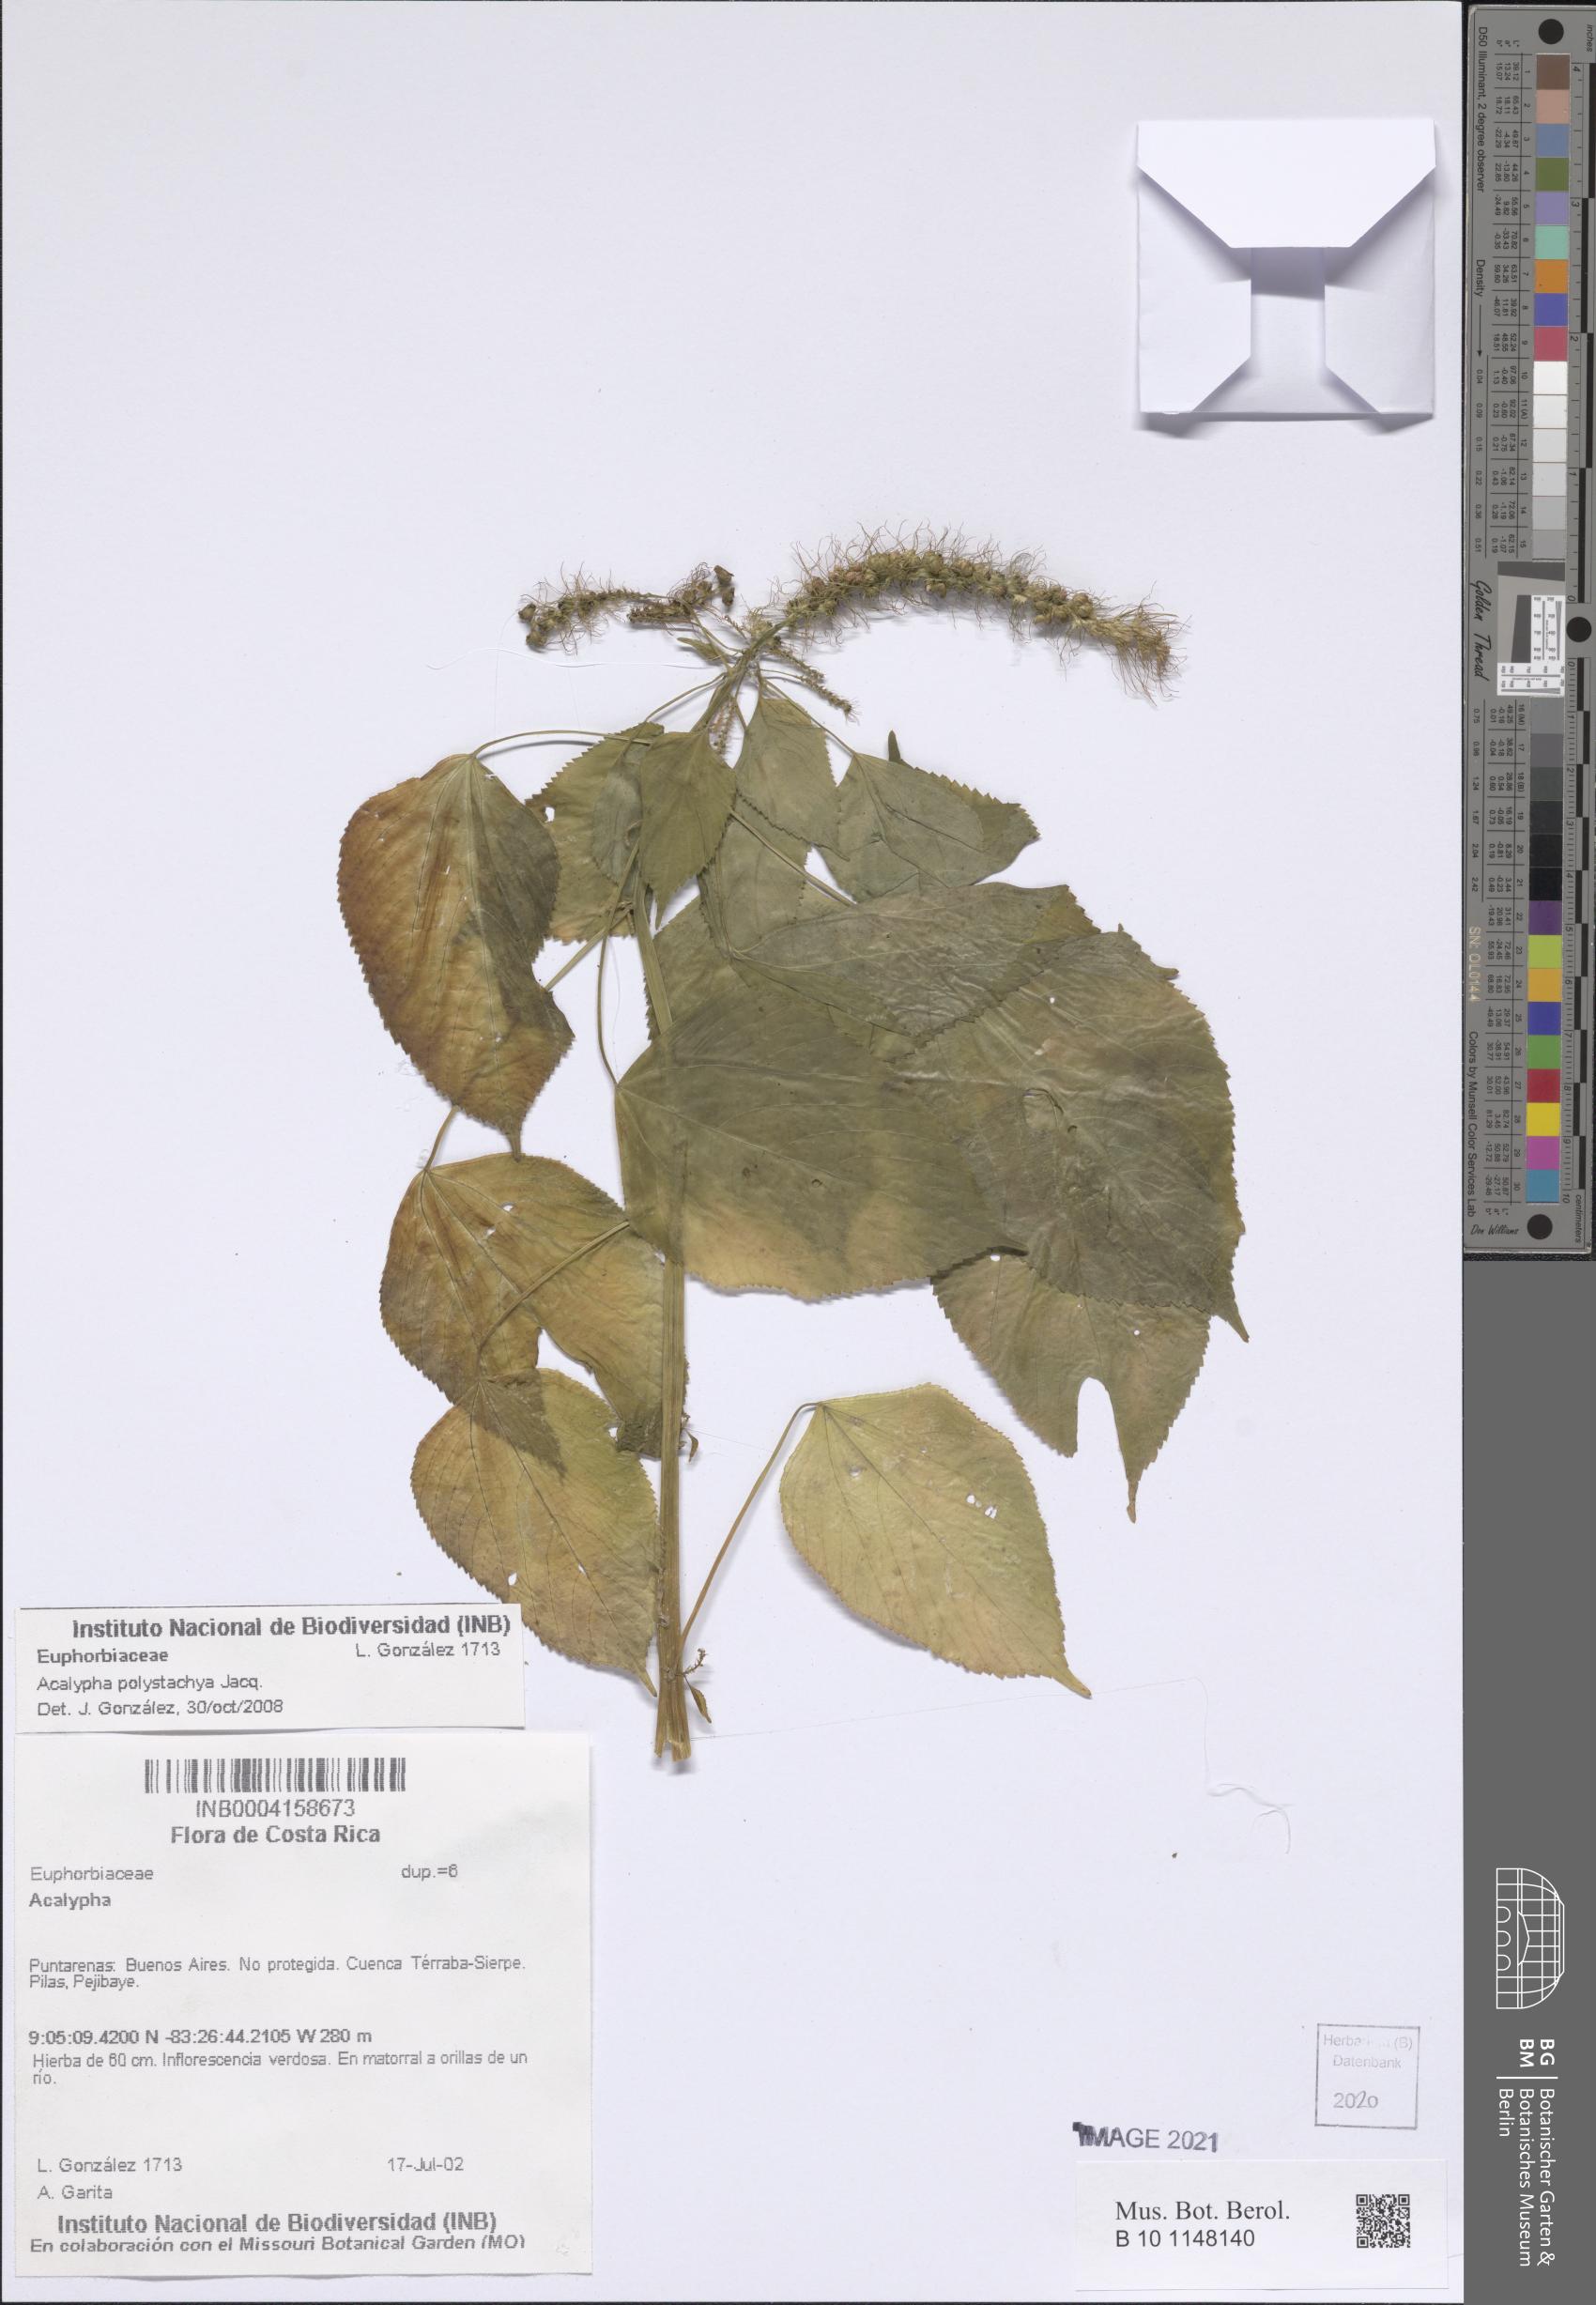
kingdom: Plantae
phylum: Tracheophyta
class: Magnoliopsida
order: Malpighiales
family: Euphorbiaceae
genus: Acalypha
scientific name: Acalypha polystachya
